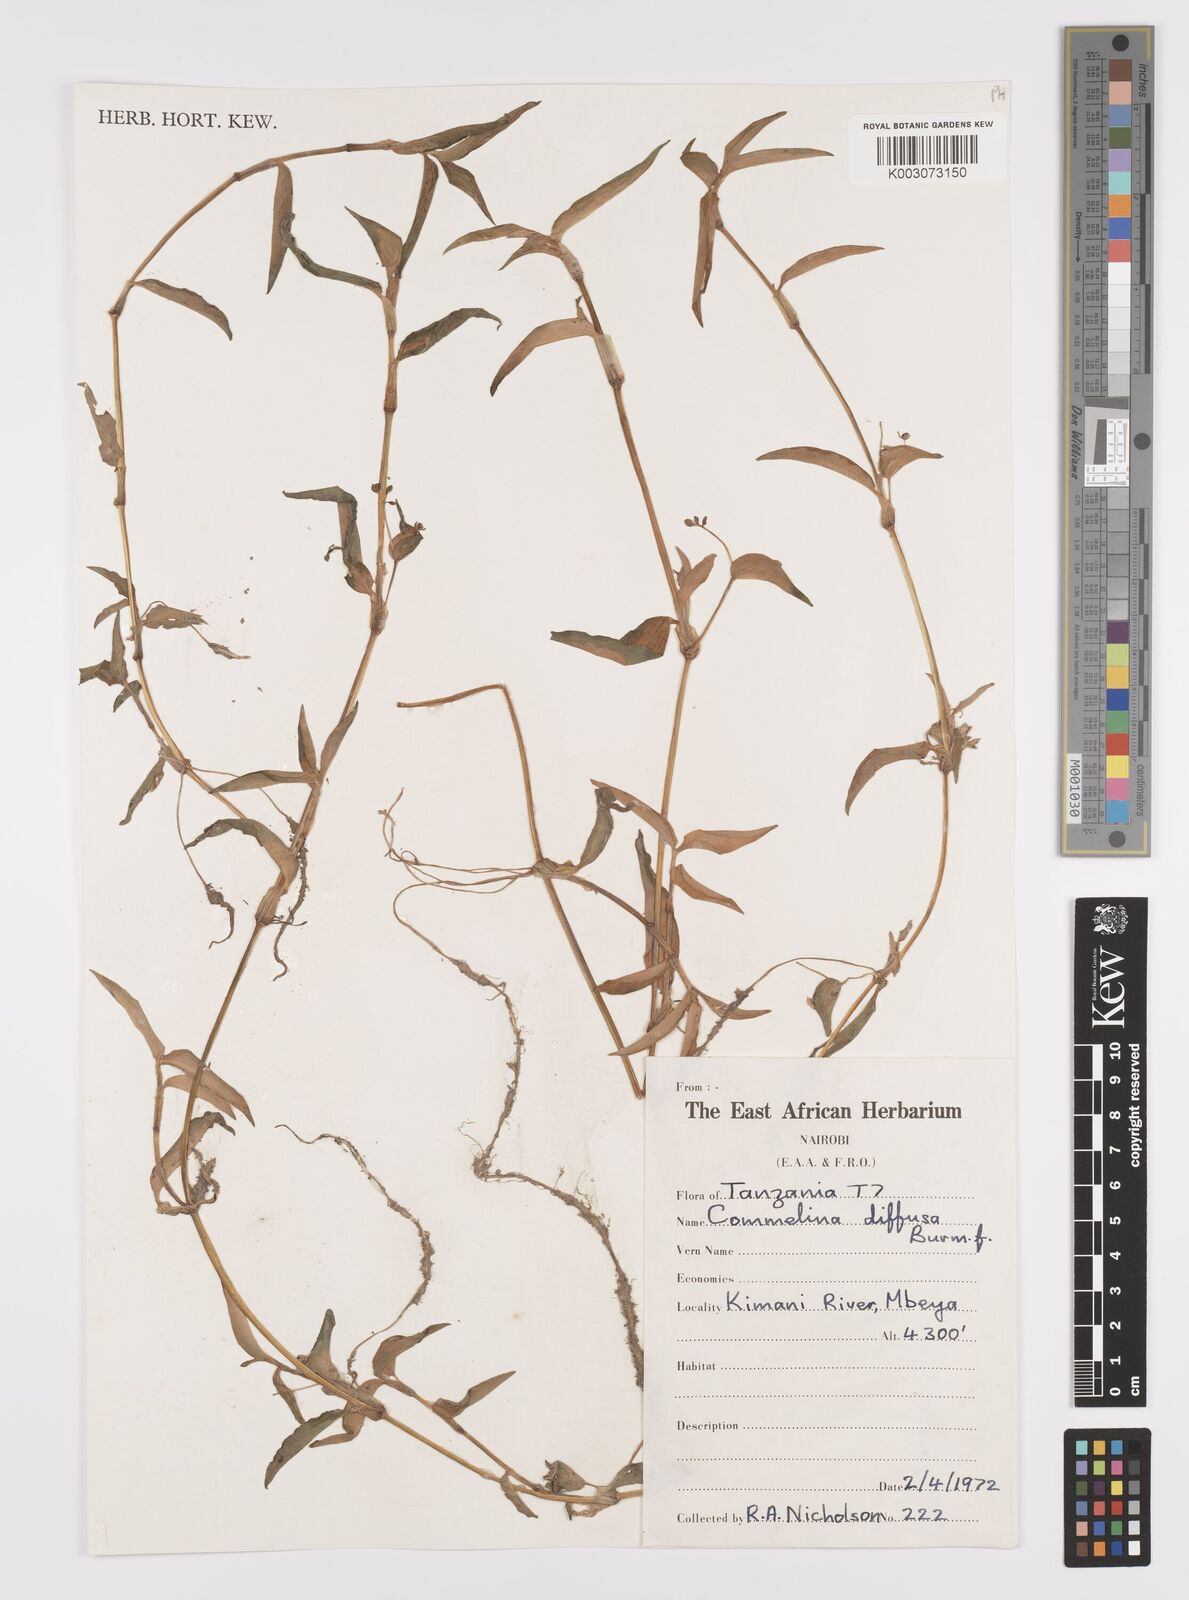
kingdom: Plantae
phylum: Tracheophyta
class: Liliopsida
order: Commelinales
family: Commelinaceae
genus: Commelina
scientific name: Commelina diffusa
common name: Climbing dayflower
